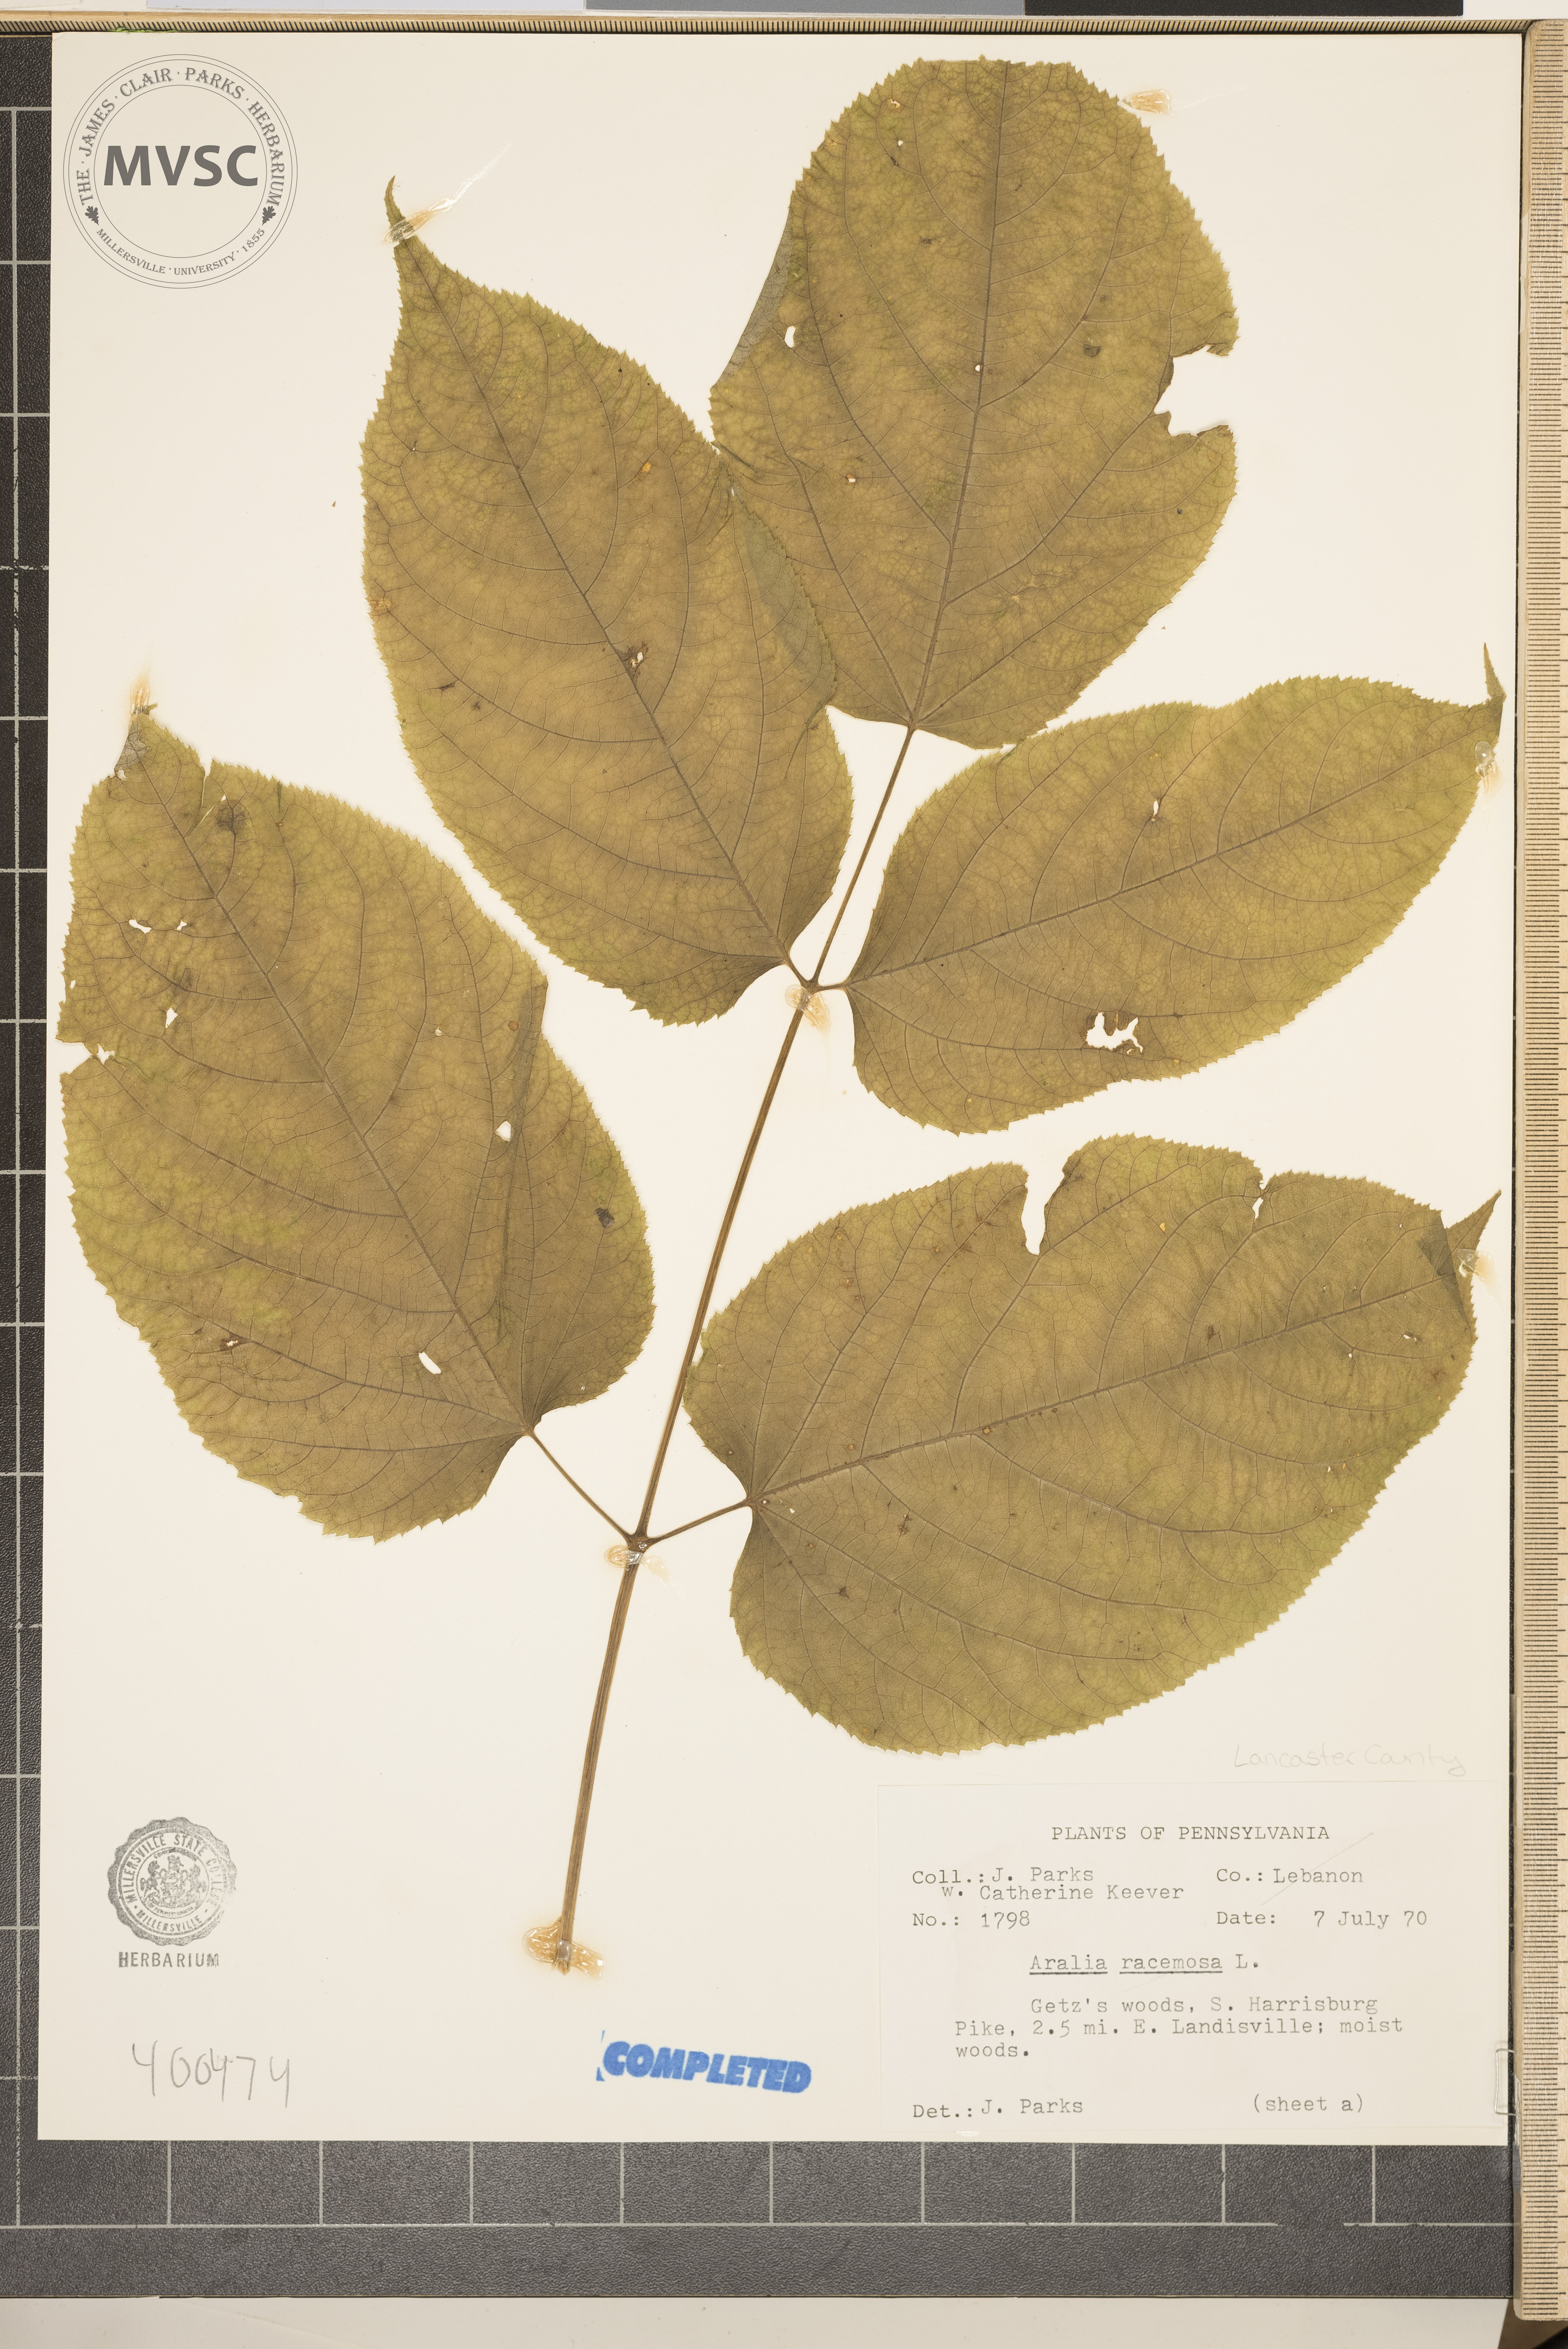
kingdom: Plantae
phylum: Tracheophyta
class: Magnoliopsida
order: Apiales
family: Araliaceae
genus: Aralia
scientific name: Aralia racemosa
